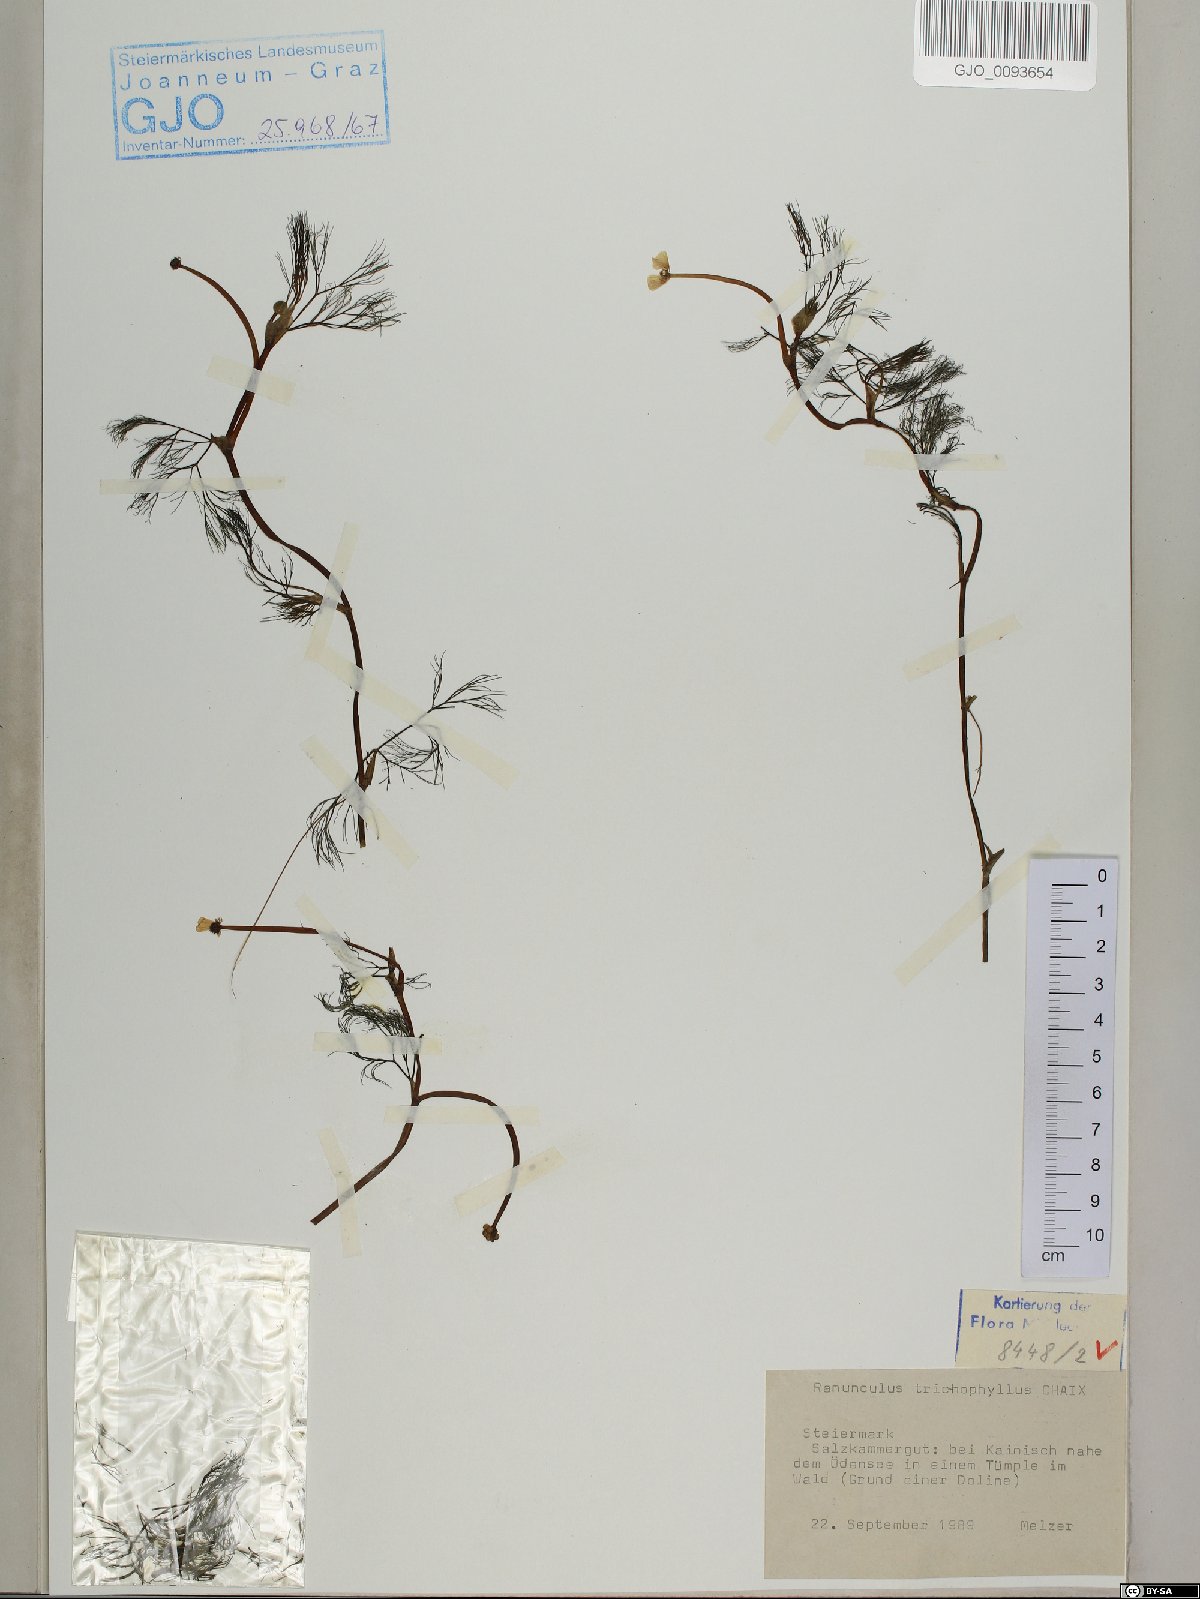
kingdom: Plantae
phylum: Tracheophyta
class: Magnoliopsida
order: Ranunculales
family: Ranunculaceae
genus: Ranunculus
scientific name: Ranunculus trichophyllus
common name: Thread-leaved water-crowfoot
